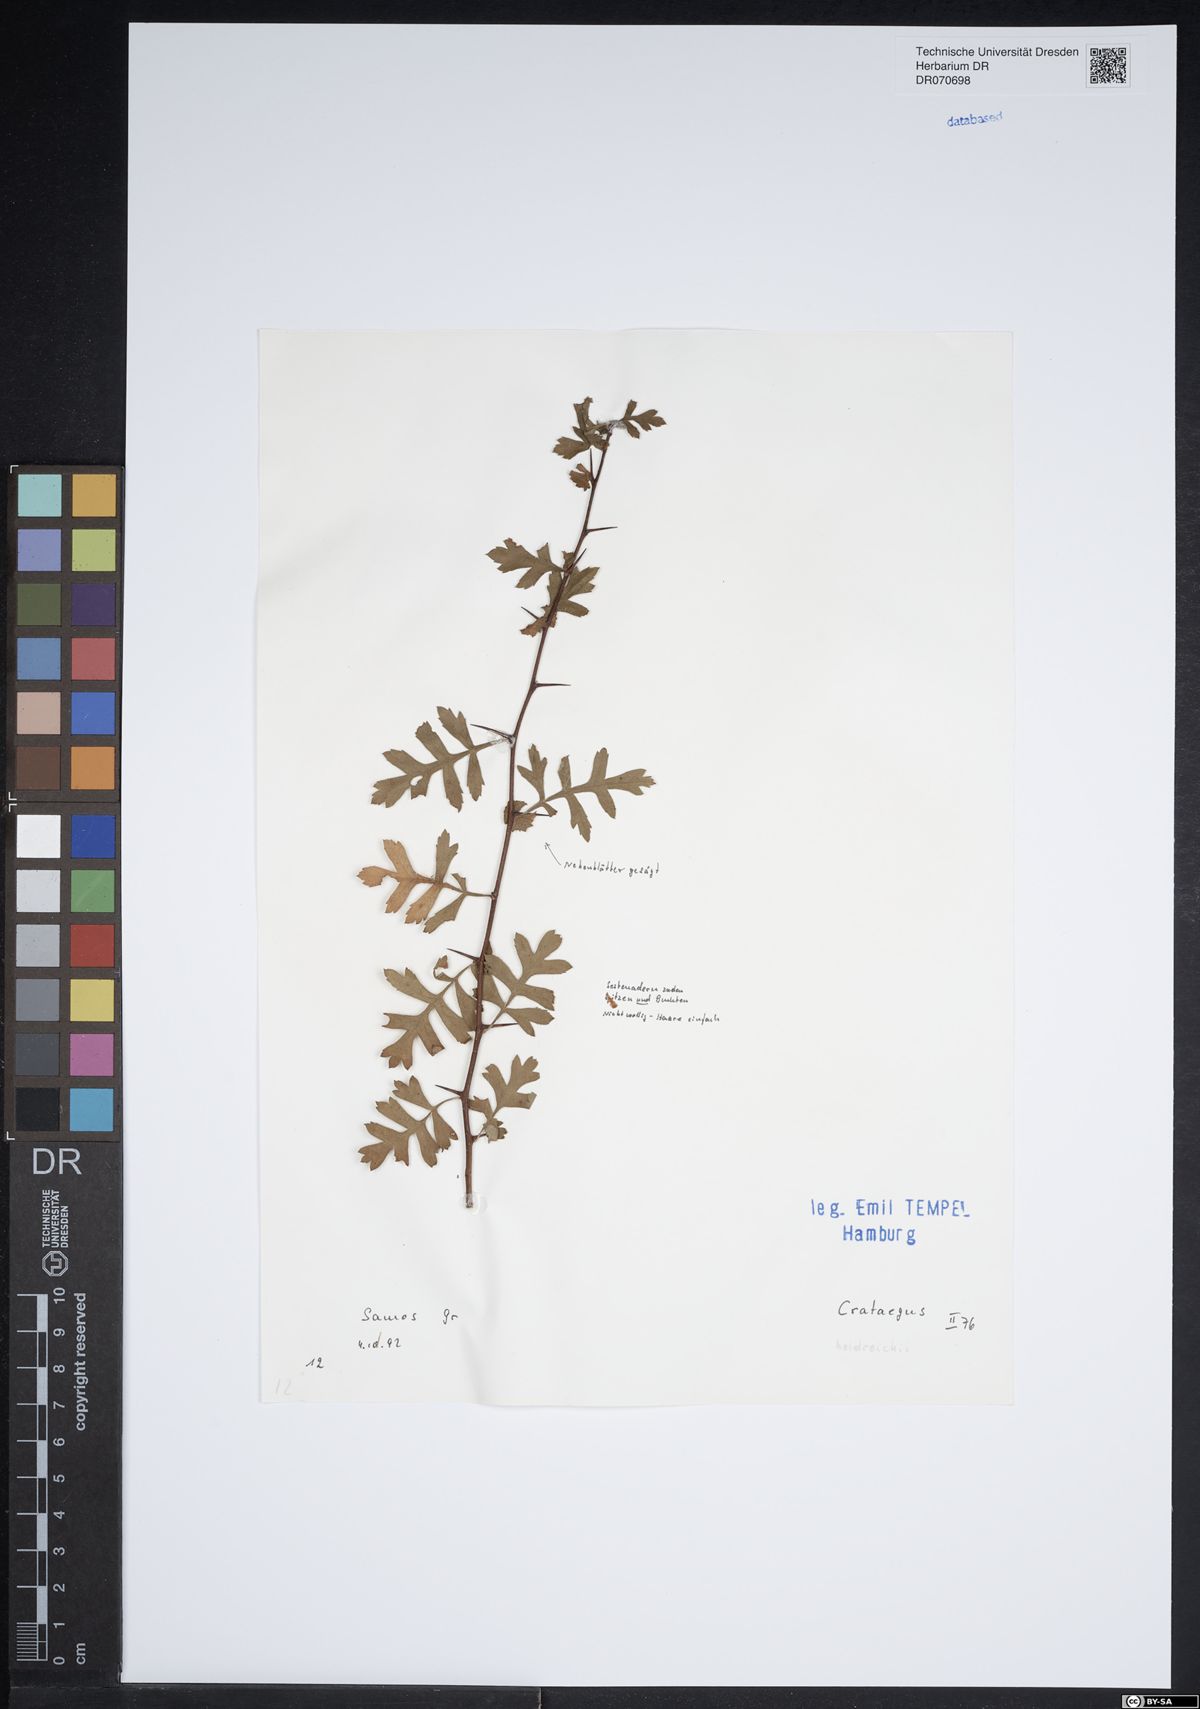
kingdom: Plantae
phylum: Tracheophyta
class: Magnoliopsida
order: Rosales
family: Rosaceae
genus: Crataegus
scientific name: Crataegus heldreichii
